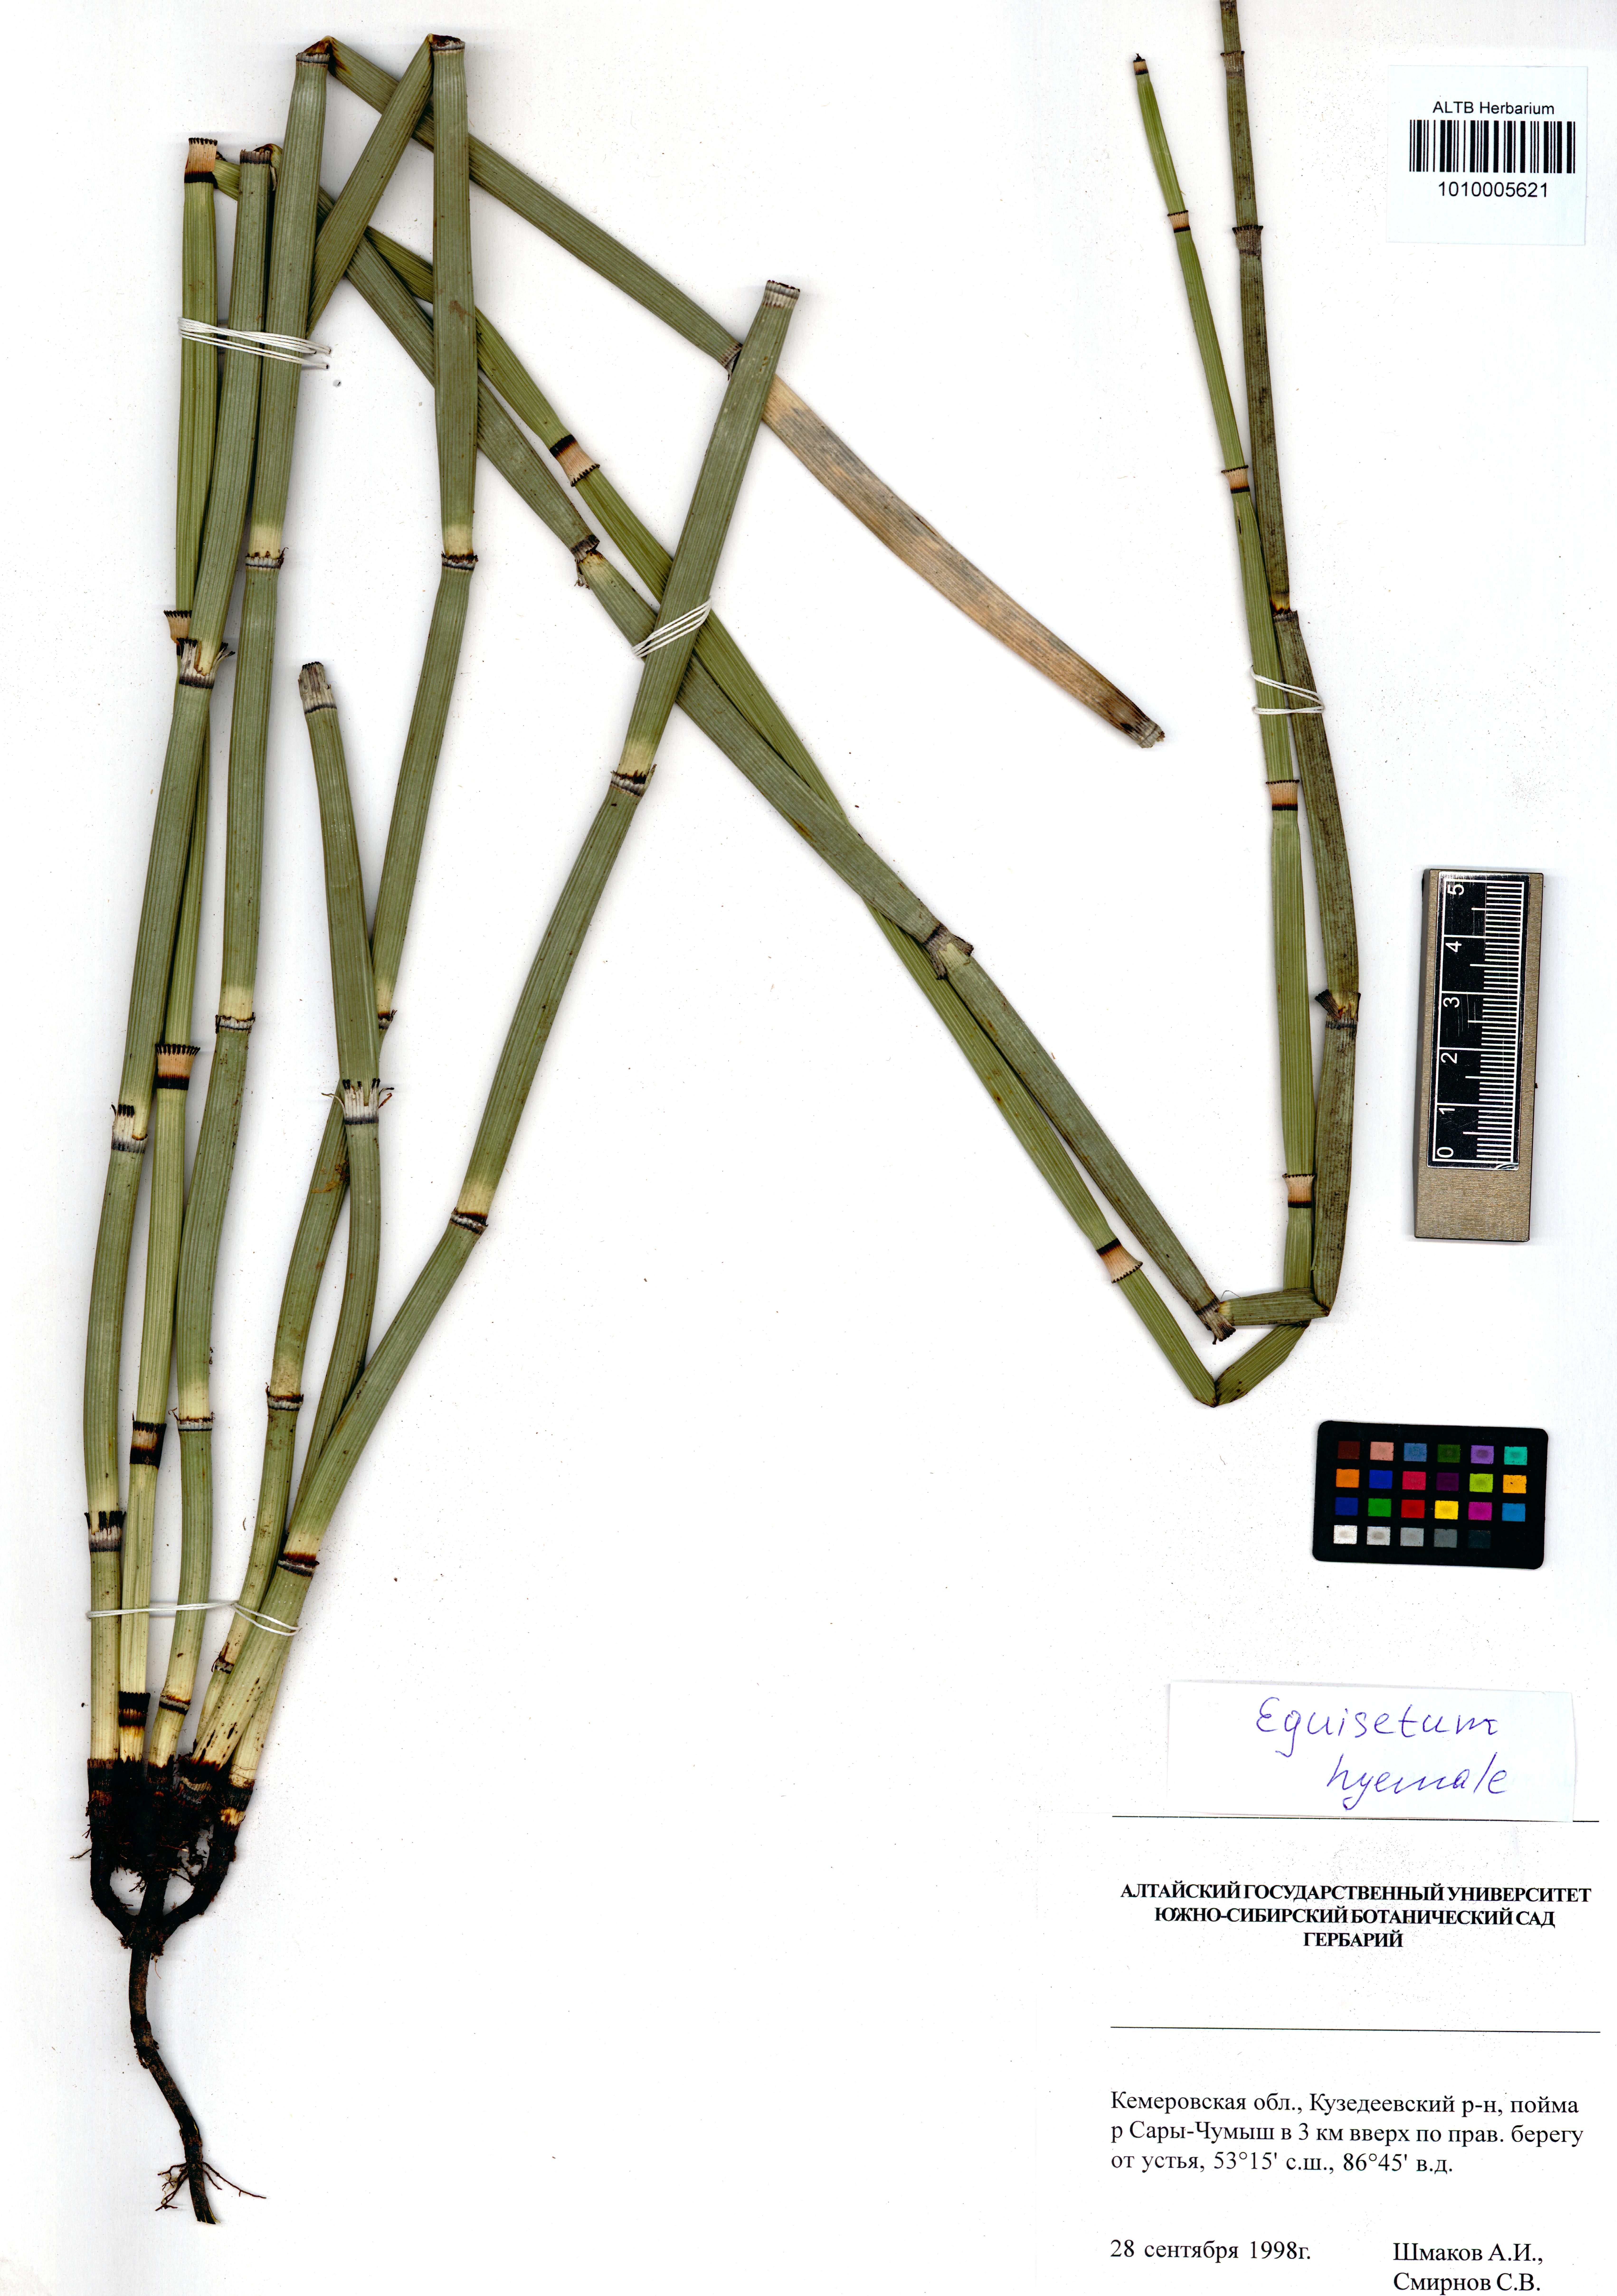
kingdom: Plantae
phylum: Tracheophyta
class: Polypodiopsida
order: Equisetales
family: Equisetaceae
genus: Equisetum
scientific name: Equisetum hyemale
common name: Rough horsetail
